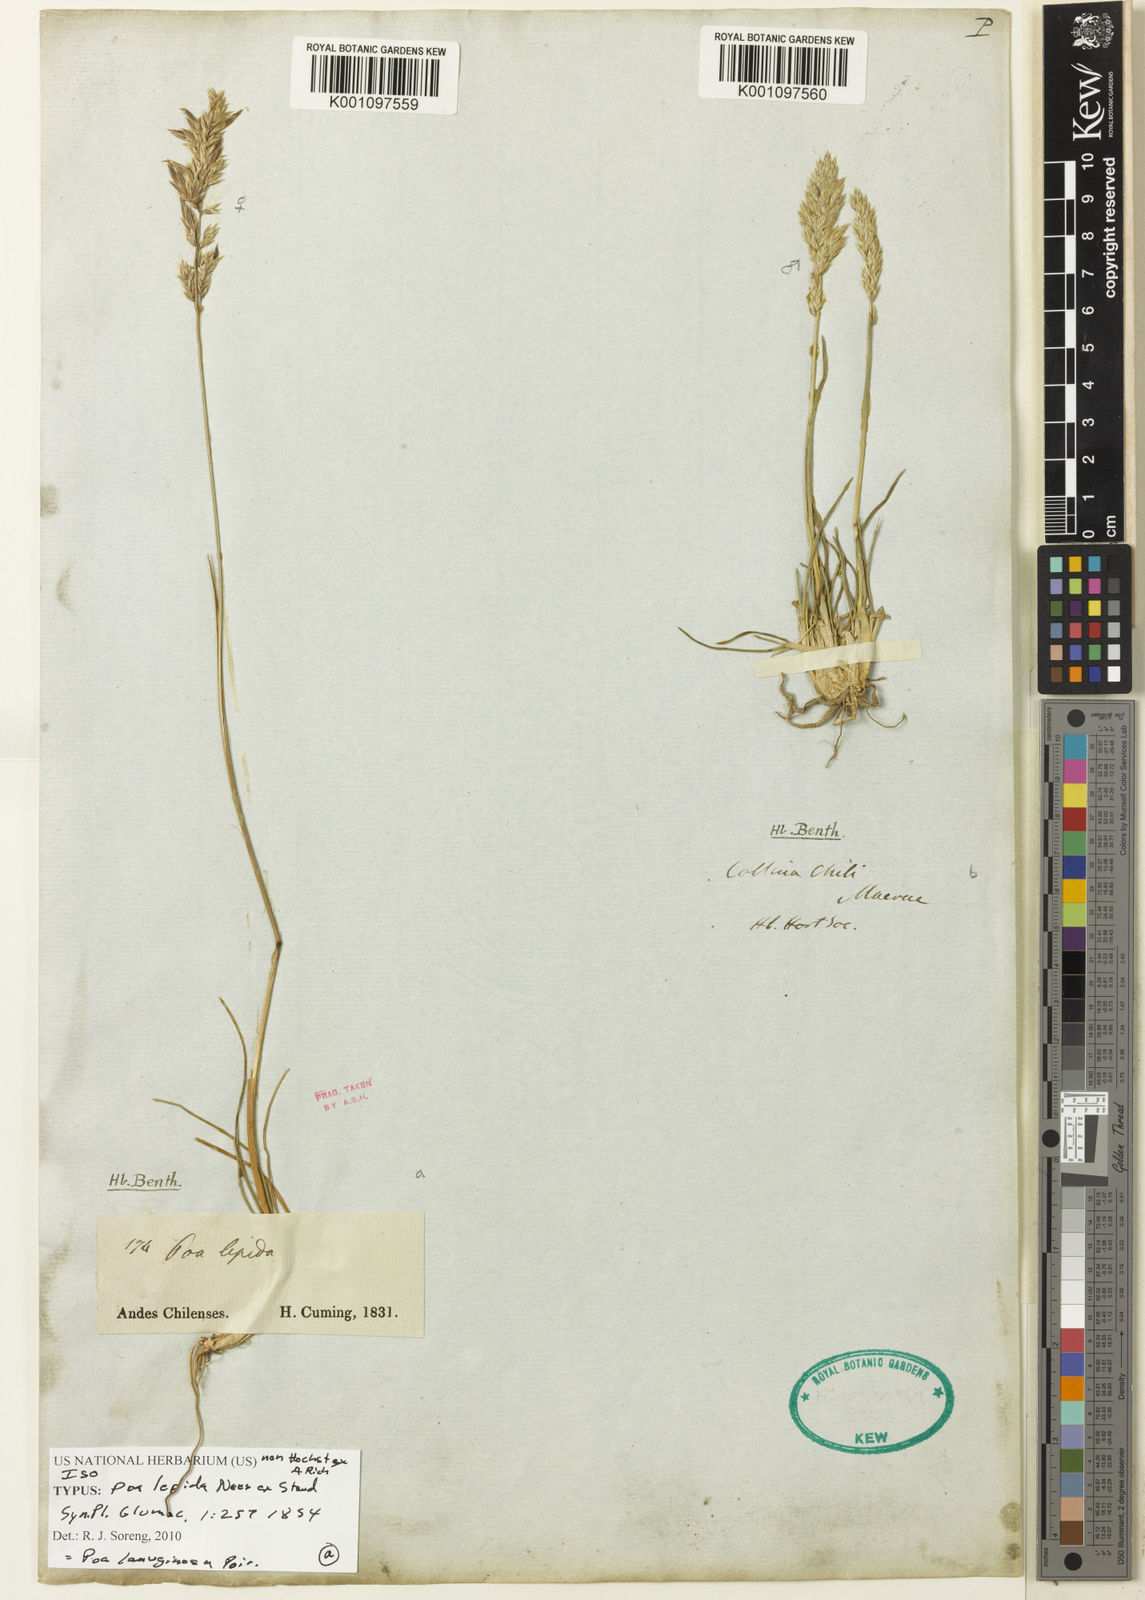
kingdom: Plantae
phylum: Tracheophyta
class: Liliopsida
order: Poales
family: Poaceae
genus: Poa
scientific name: Poa denudata
